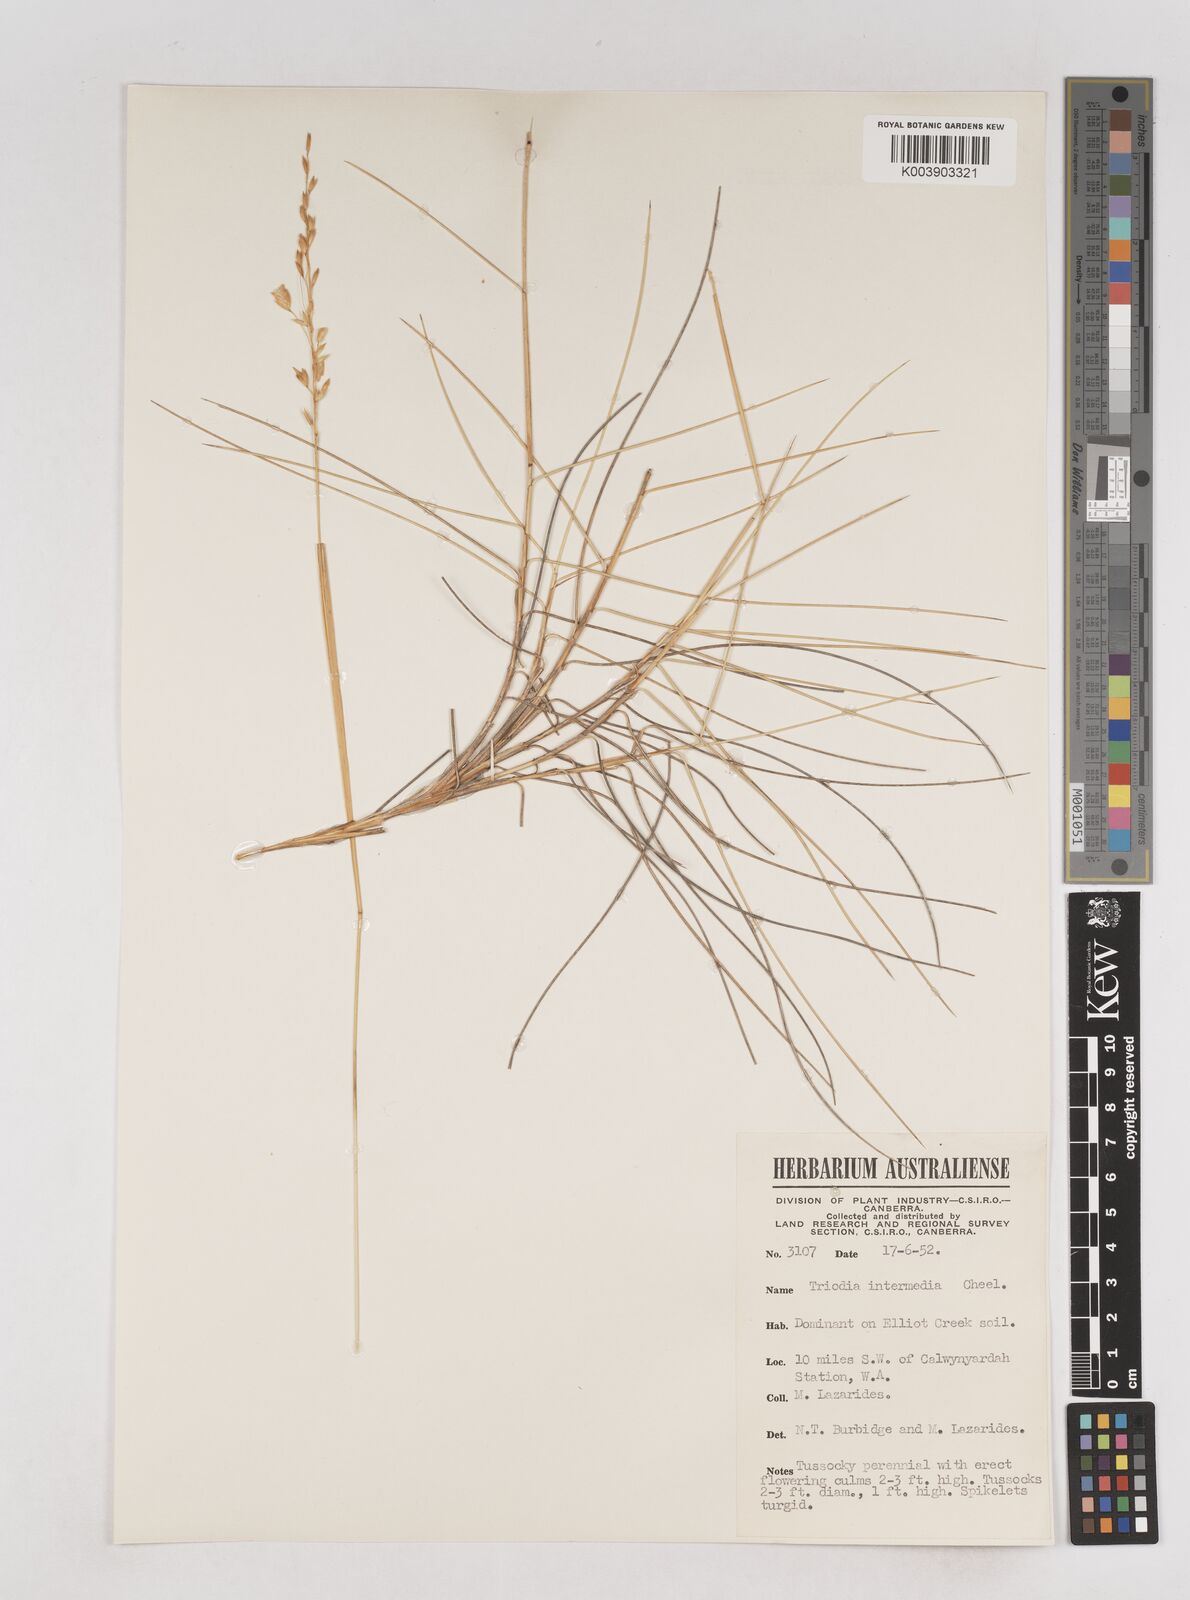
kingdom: Plantae
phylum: Tracheophyta
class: Liliopsida
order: Poales
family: Poaceae
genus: Triodia
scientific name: Triodia intermedia
